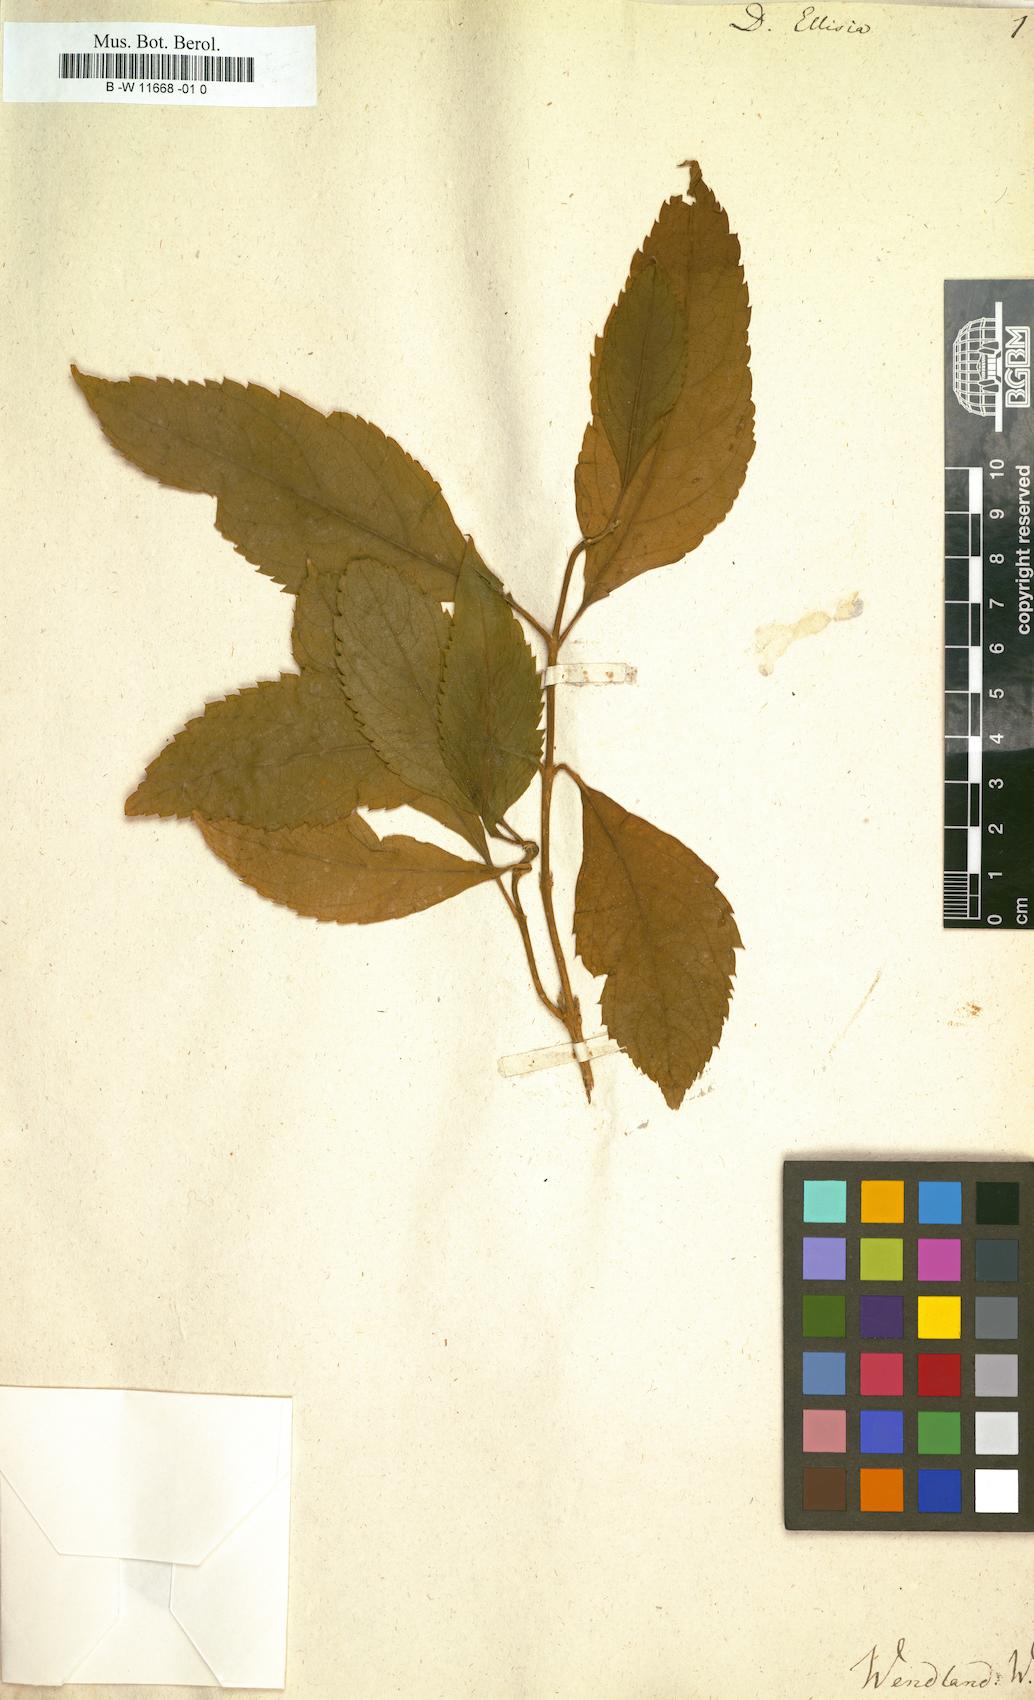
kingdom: Plantae
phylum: Tracheophyta
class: Magnoliopsida
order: Lamiales
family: Verbenaceae
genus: Duranta
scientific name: Duranta erecta
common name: Golden dewdrops
